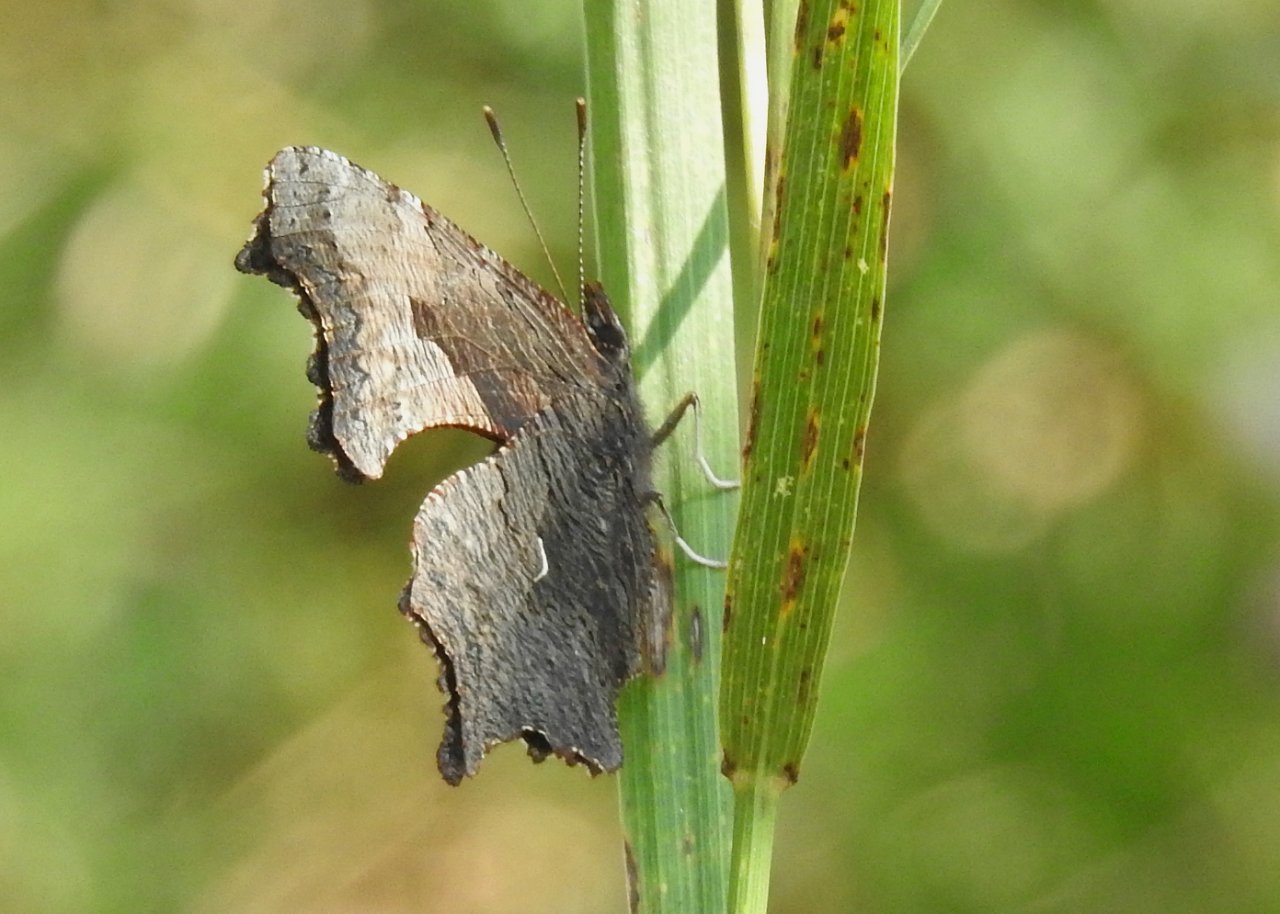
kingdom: Animalia
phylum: Arthropoda
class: Insecta
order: Lepidoptera
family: Nymphalidae
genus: Polygonia
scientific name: Polygonia progne
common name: Gray Comma
